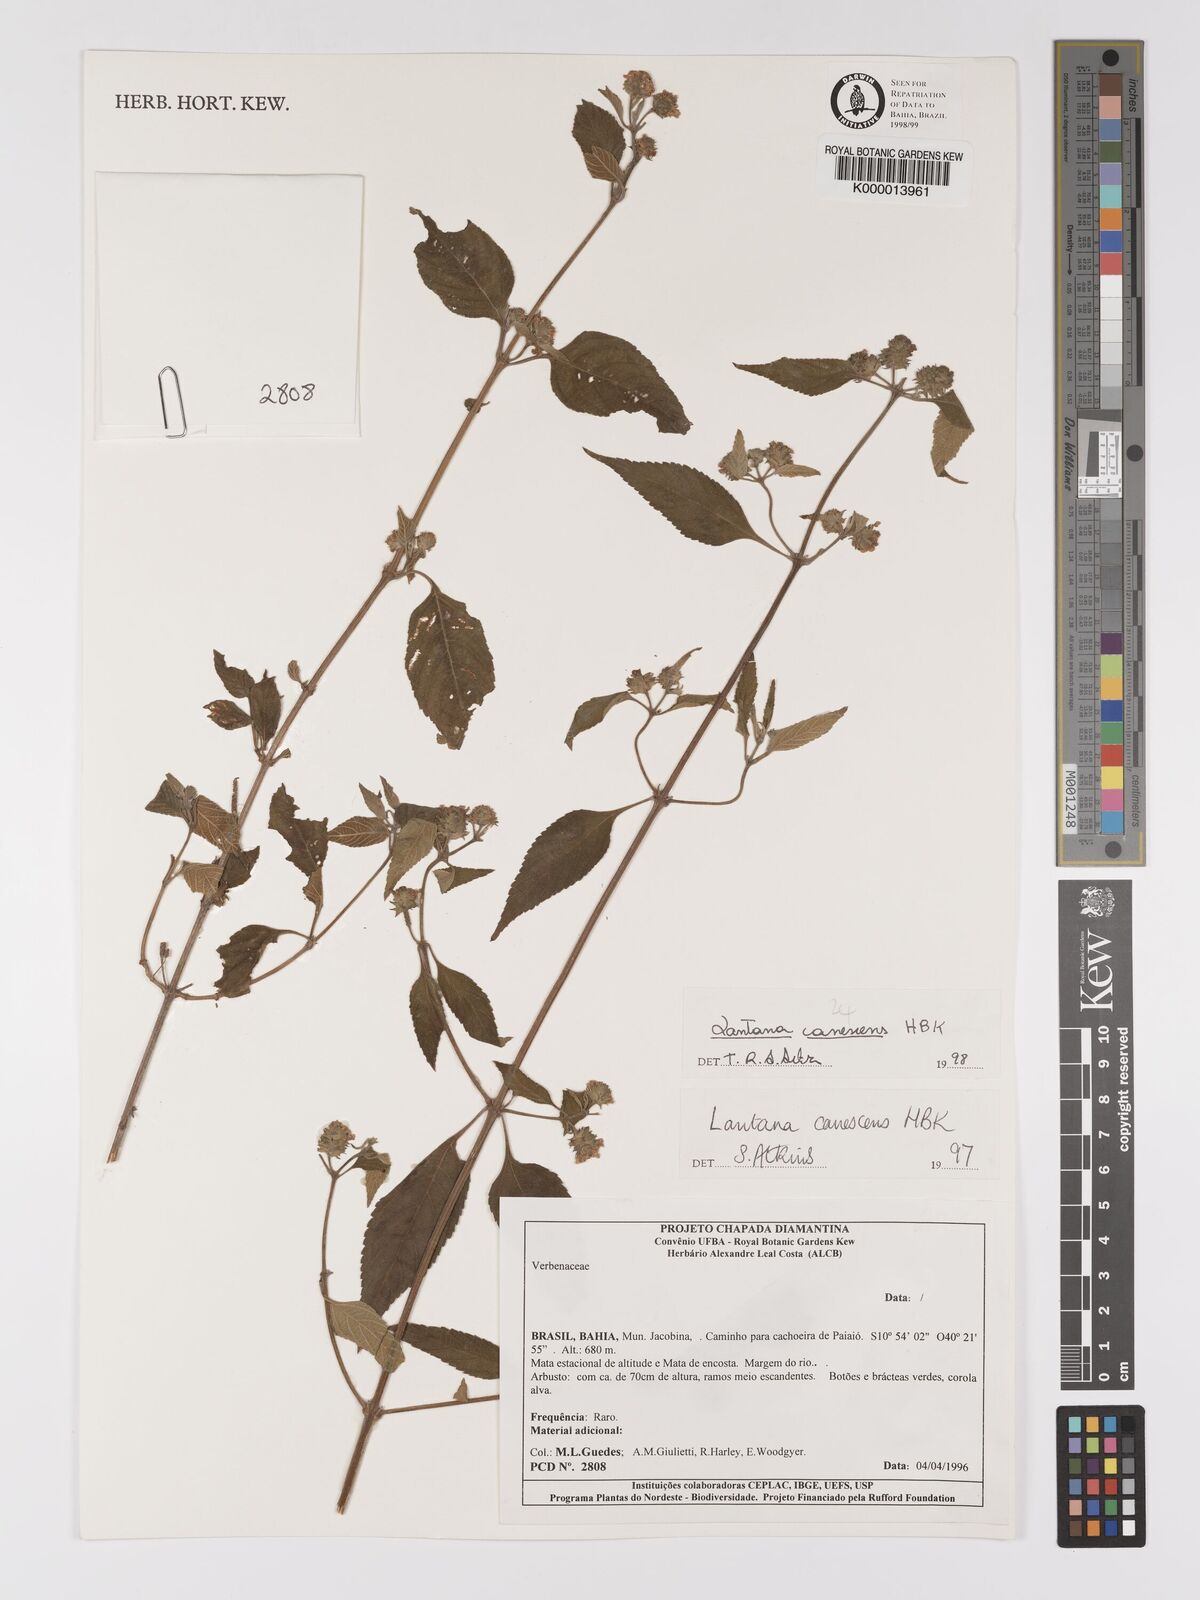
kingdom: Plantae
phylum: Tracheophyta
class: Magnoliopsida
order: Lamiales
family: Verbenaceae
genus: Lantana
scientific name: Lantana canescens
